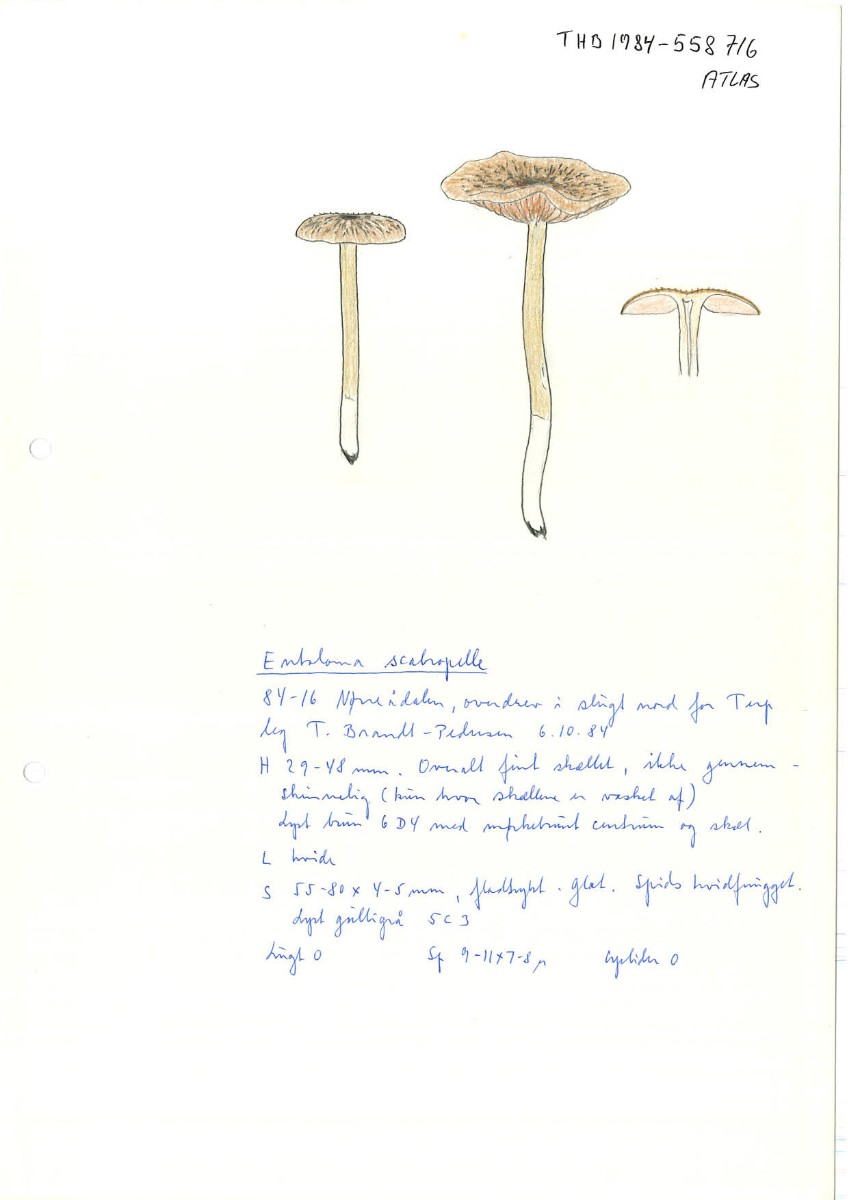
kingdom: Fungi
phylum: Basidiomycota
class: Agaricomycetes
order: Agaricales
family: Entolomataceae
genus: Entoloma
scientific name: Entoloma griseocyaneum
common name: gråblå rødblad
